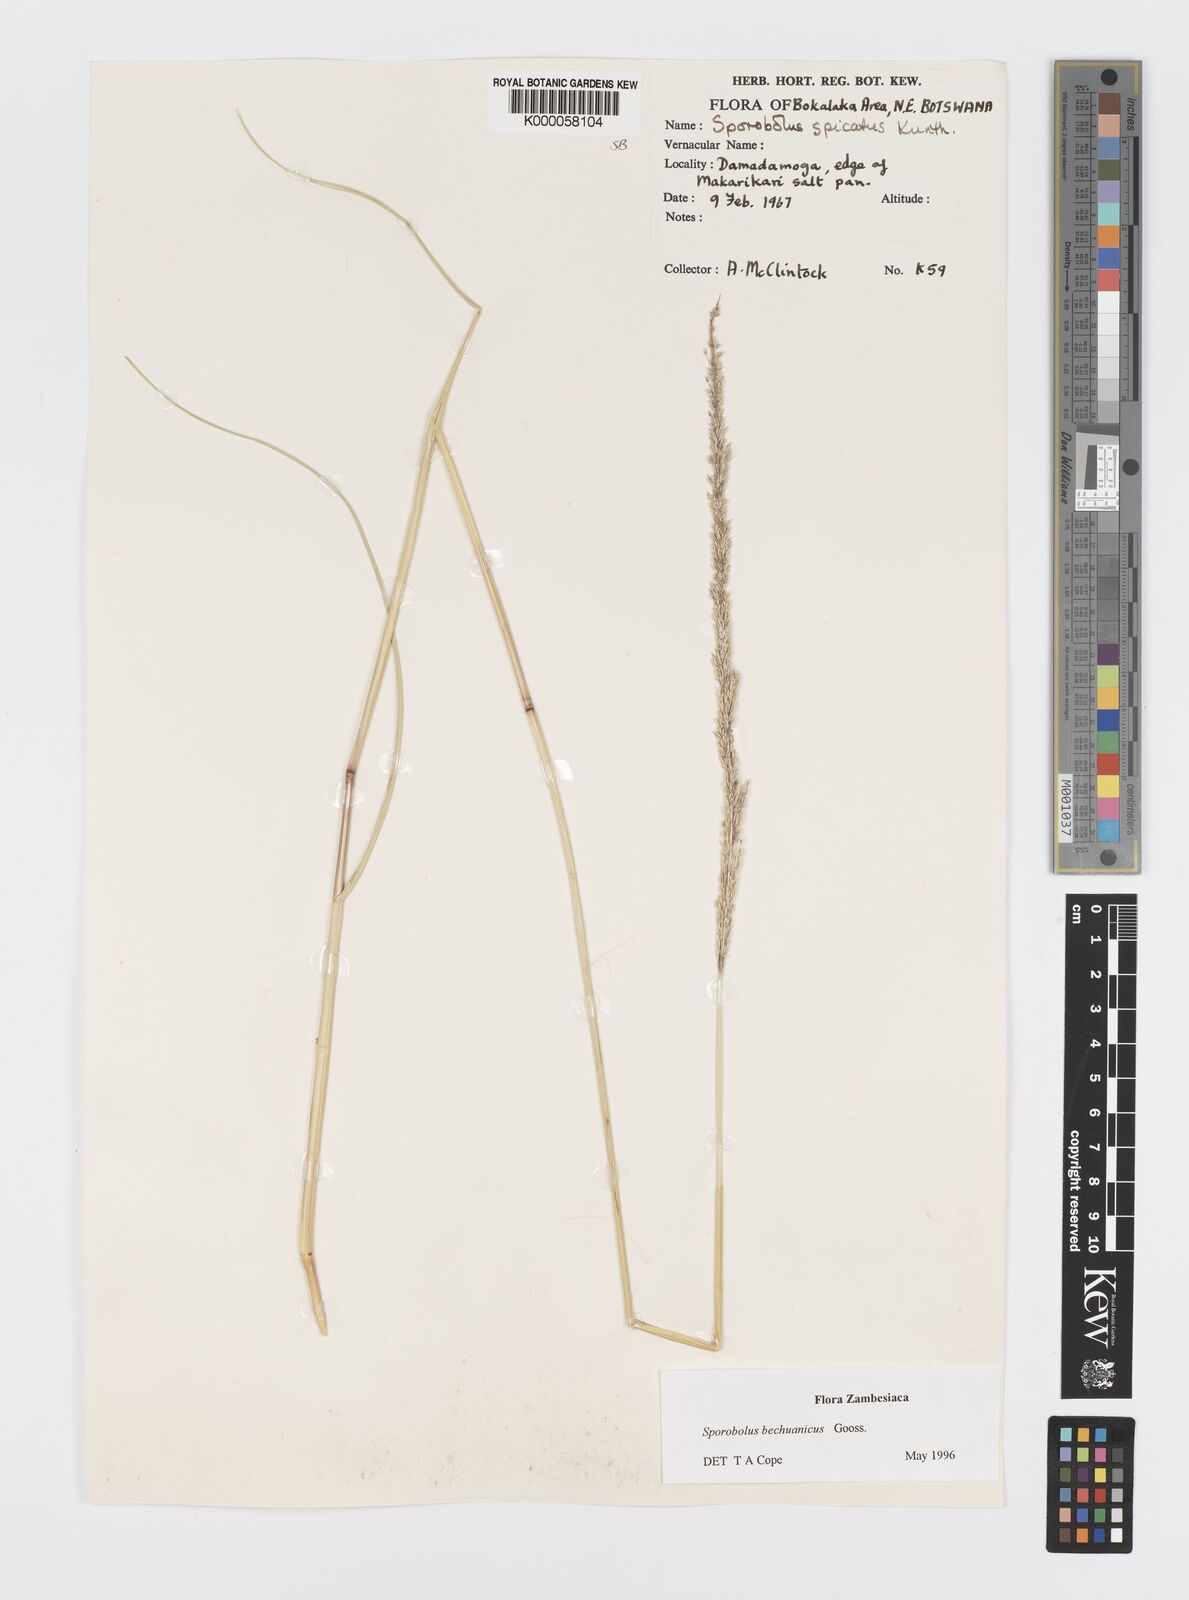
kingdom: Plantae
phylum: Tracheophyta
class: Liliopsida
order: Poales
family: Poaceae
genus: Sporobolus
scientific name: Sporobolus bechuanicus
